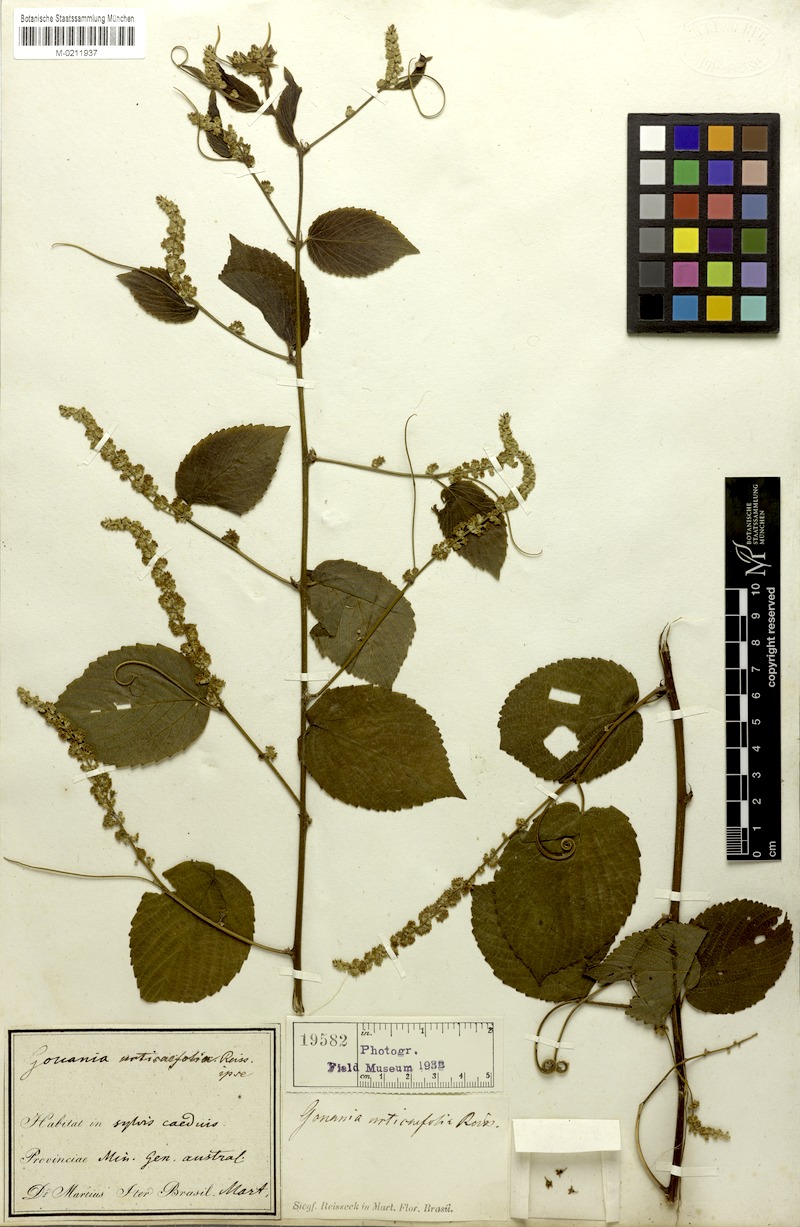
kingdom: Plantae
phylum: Tracheophyta
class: Magnoliopsida
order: Rosales
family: Rhamnaceae
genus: Gouania
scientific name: Gouania ulmifolia
